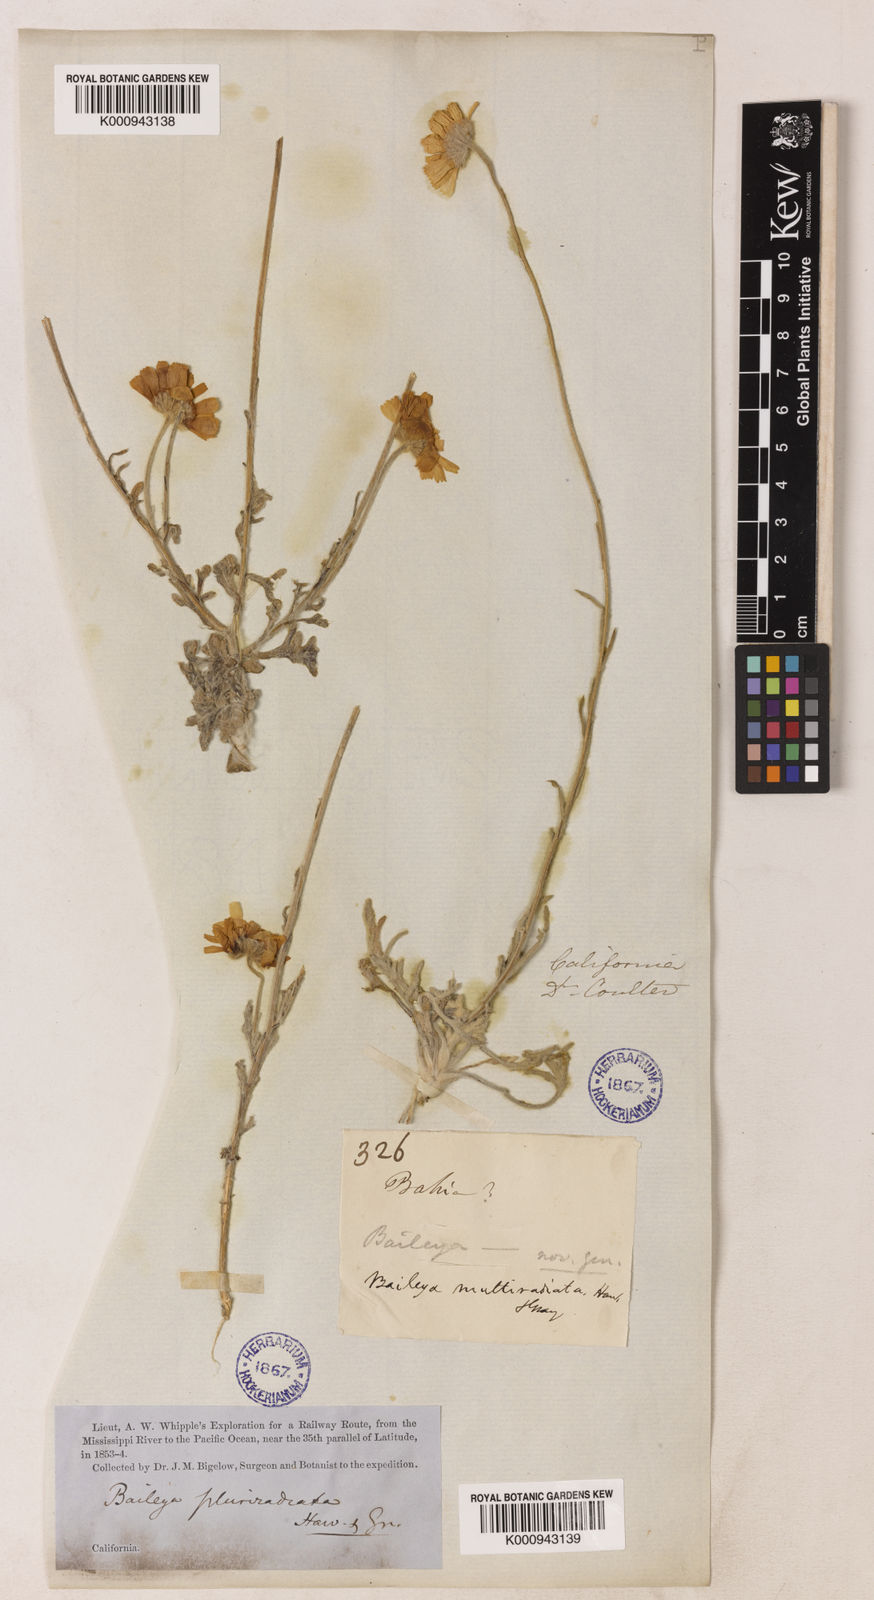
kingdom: Plantae
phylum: Tracheophyta
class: Magnoliopsida
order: Asterales
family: Asteraceae
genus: Baileya
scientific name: Baileya pleniradiata
